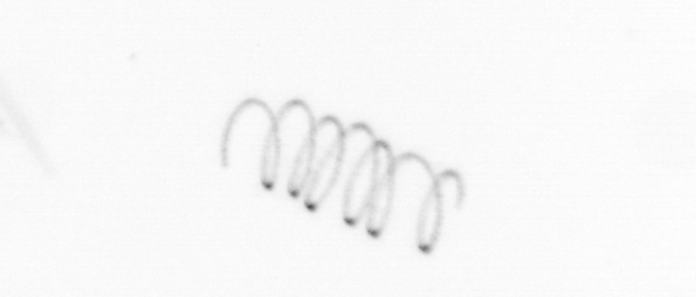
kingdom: Chromista
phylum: Ochrophyta
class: Bacillariophyceae
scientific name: Bacillariophyceae
